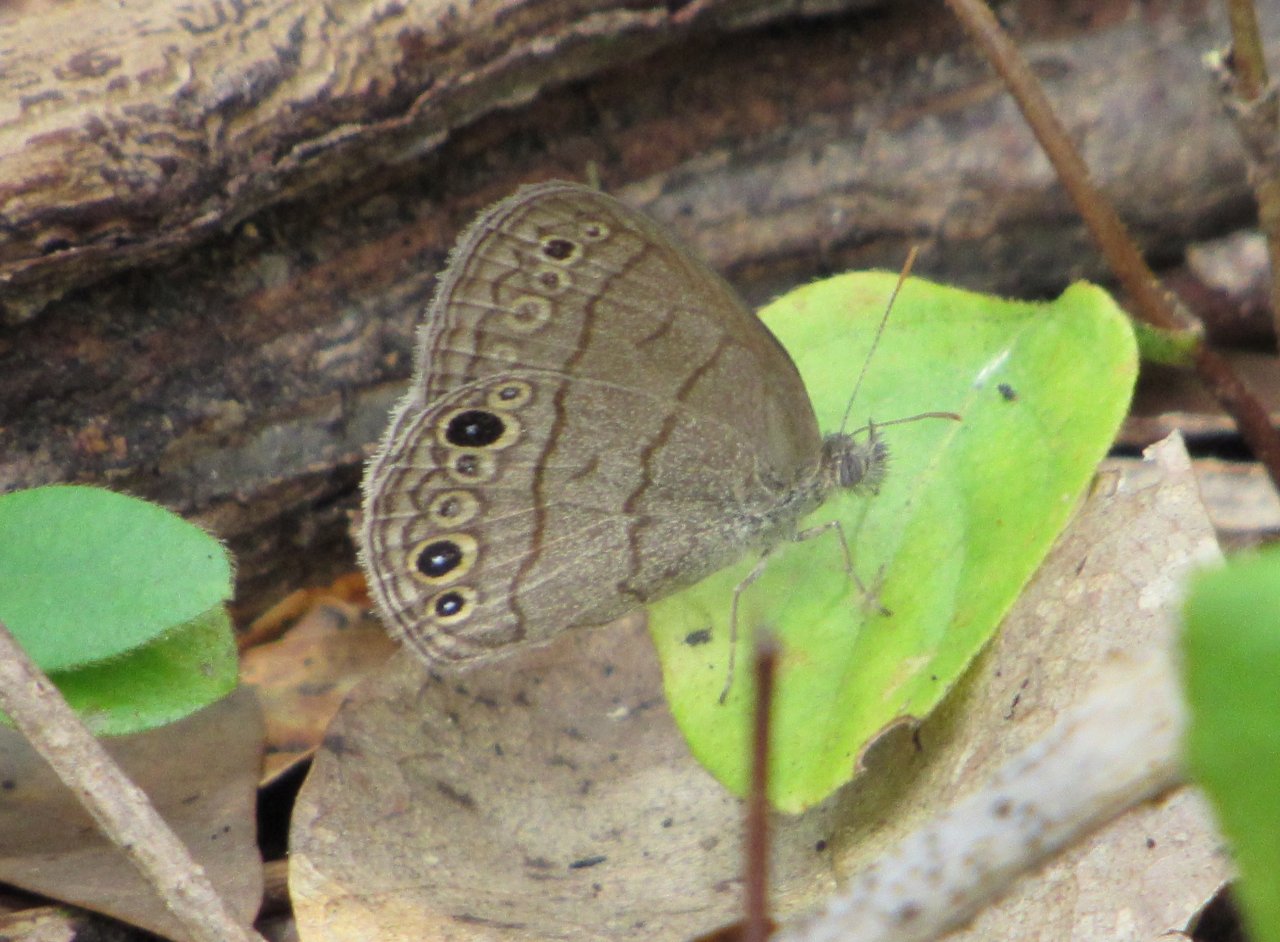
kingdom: Animalia
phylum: Arthropoda
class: Insecta
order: Lepidoptera
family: Nymphalidae
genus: Hermeuptychia
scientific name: Hermeuptychia hermes
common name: Carolina Satyr
